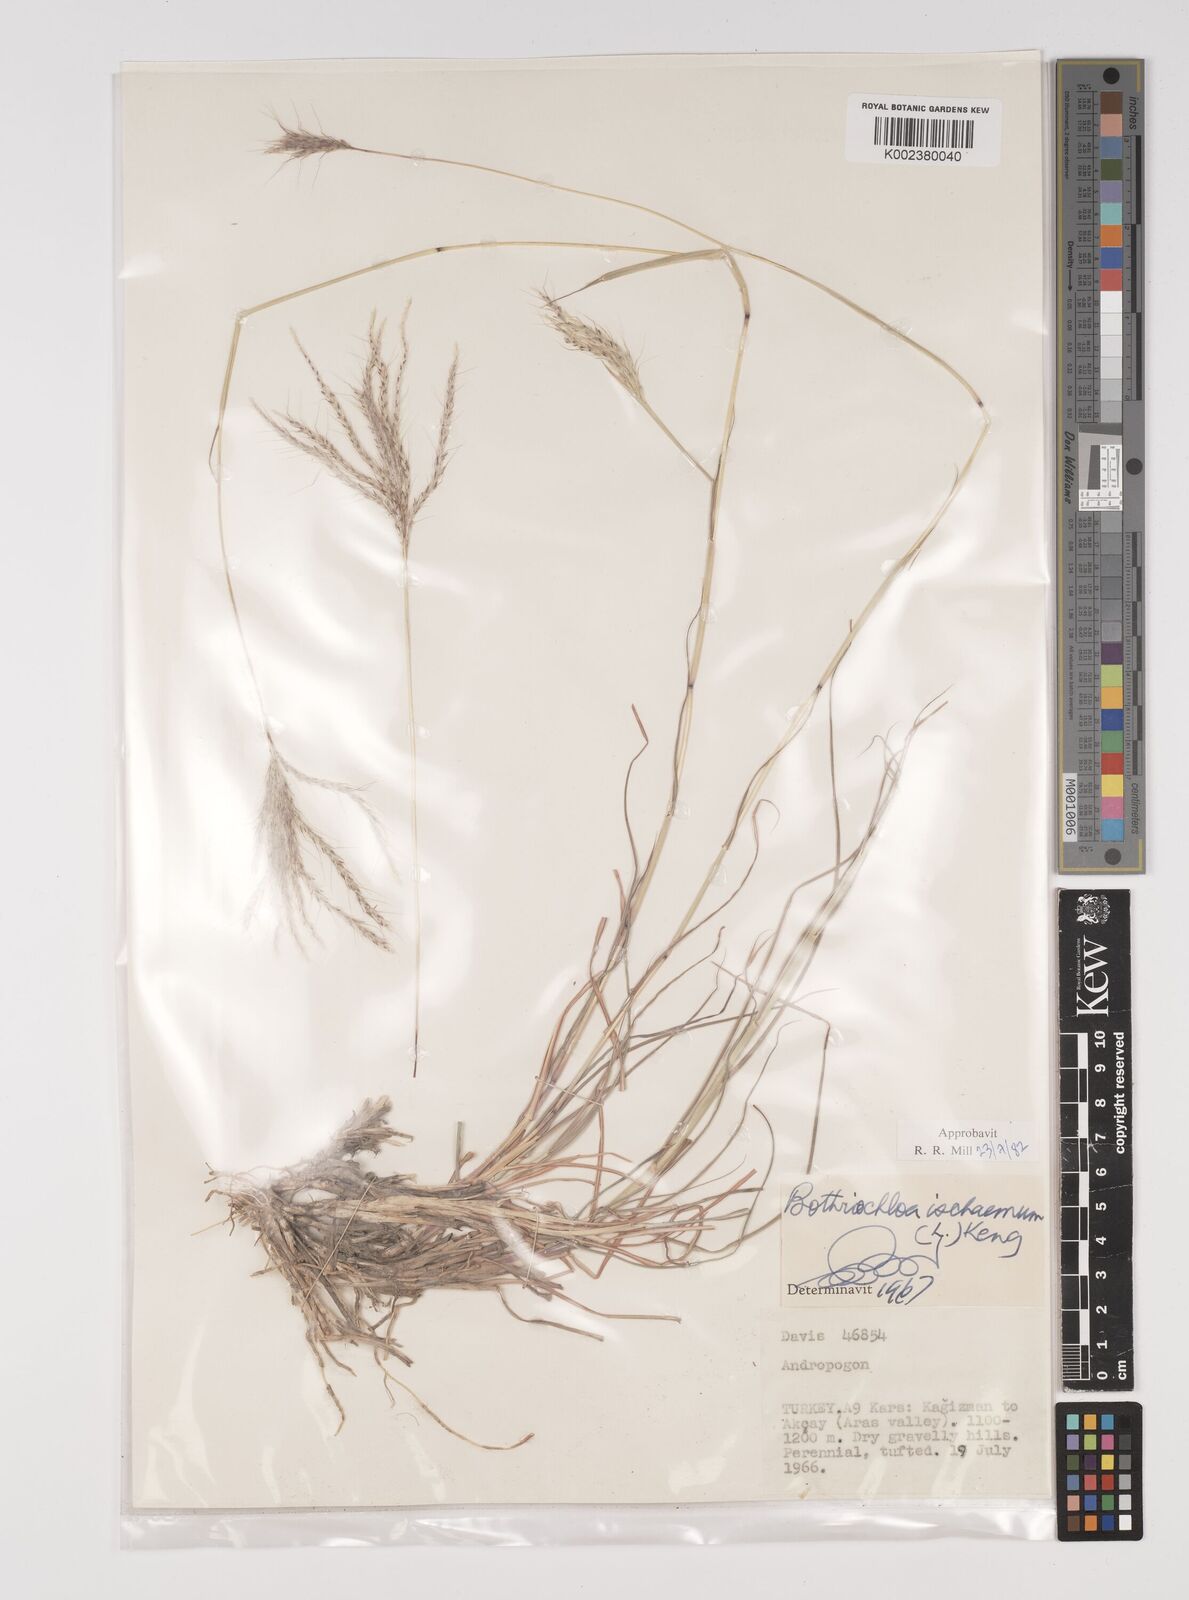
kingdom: Plantae
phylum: Tracheophyta
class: Liliopsida
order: Poales
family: Poaceae
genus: Bothriochloa
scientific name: Bothriochloa ischaemum
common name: Yellow bluestem
